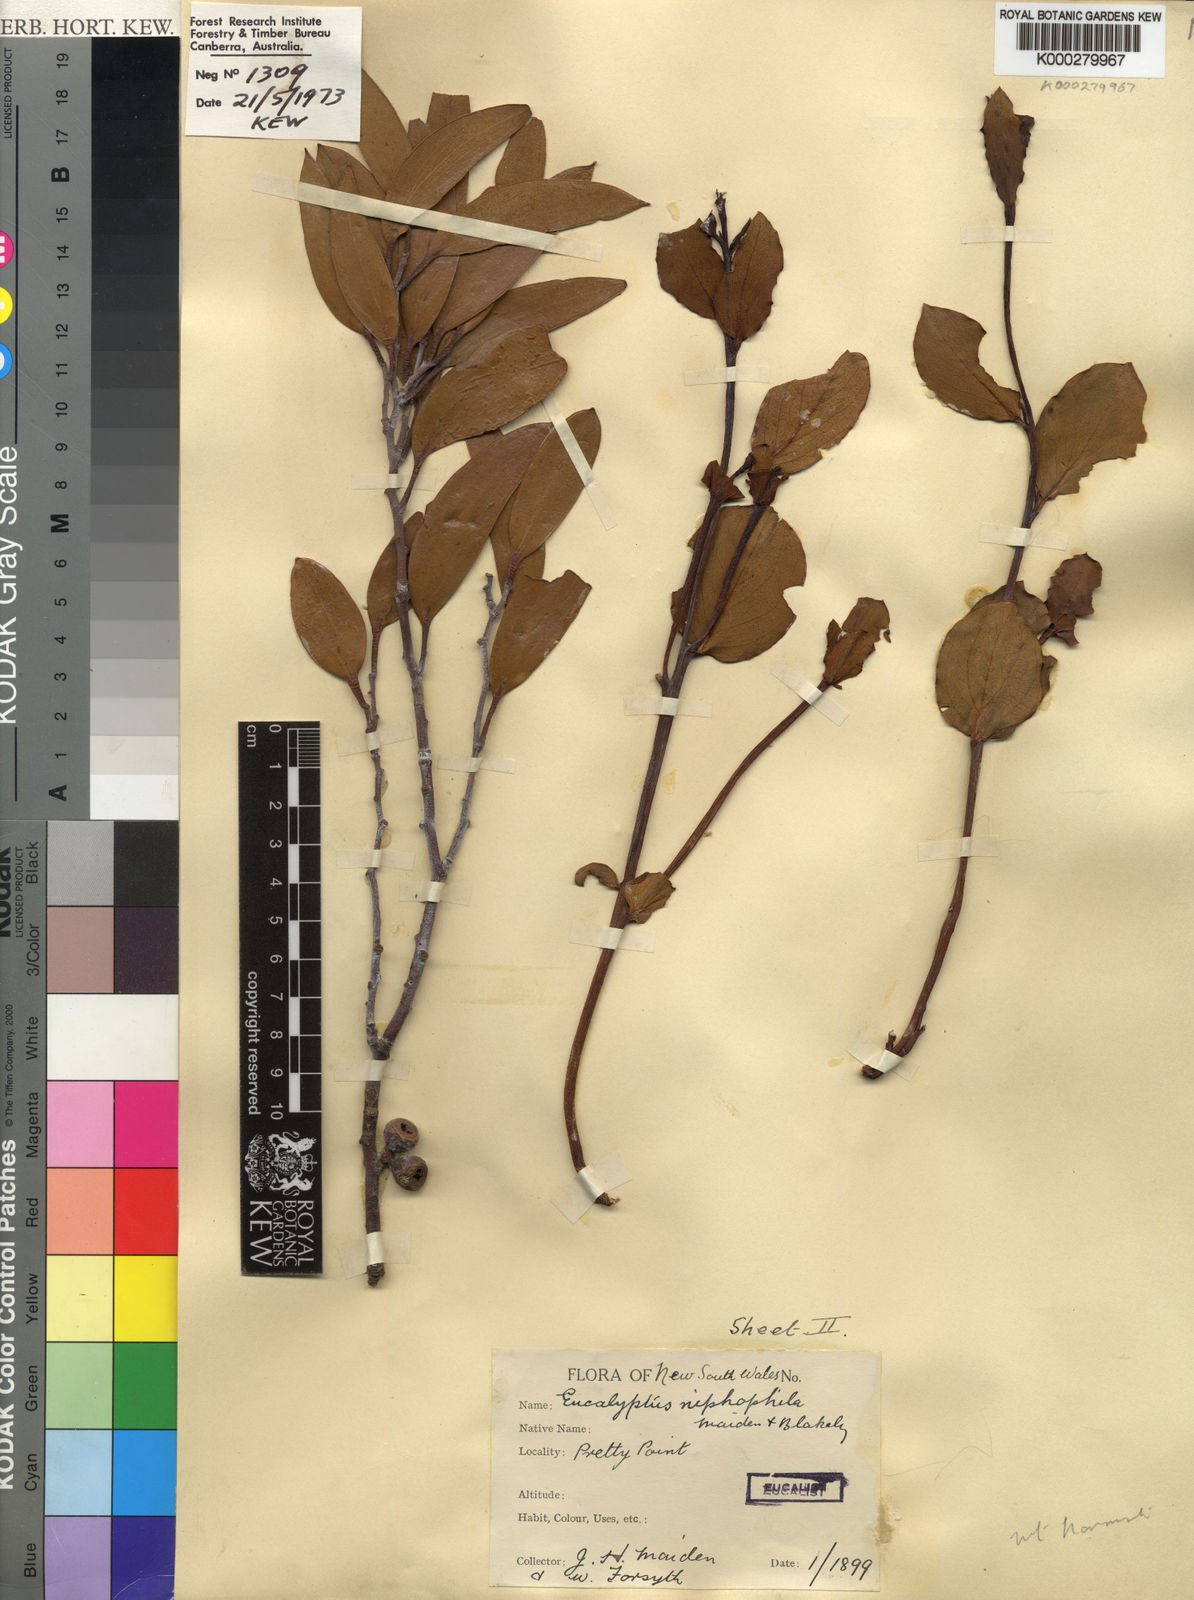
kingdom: Plantae
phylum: Tracheophyta
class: Magnoliopsida
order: Myrtales
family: Myrtaceae
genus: Eucalyptus
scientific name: Eucalyptus pauciflora
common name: Snow gum
